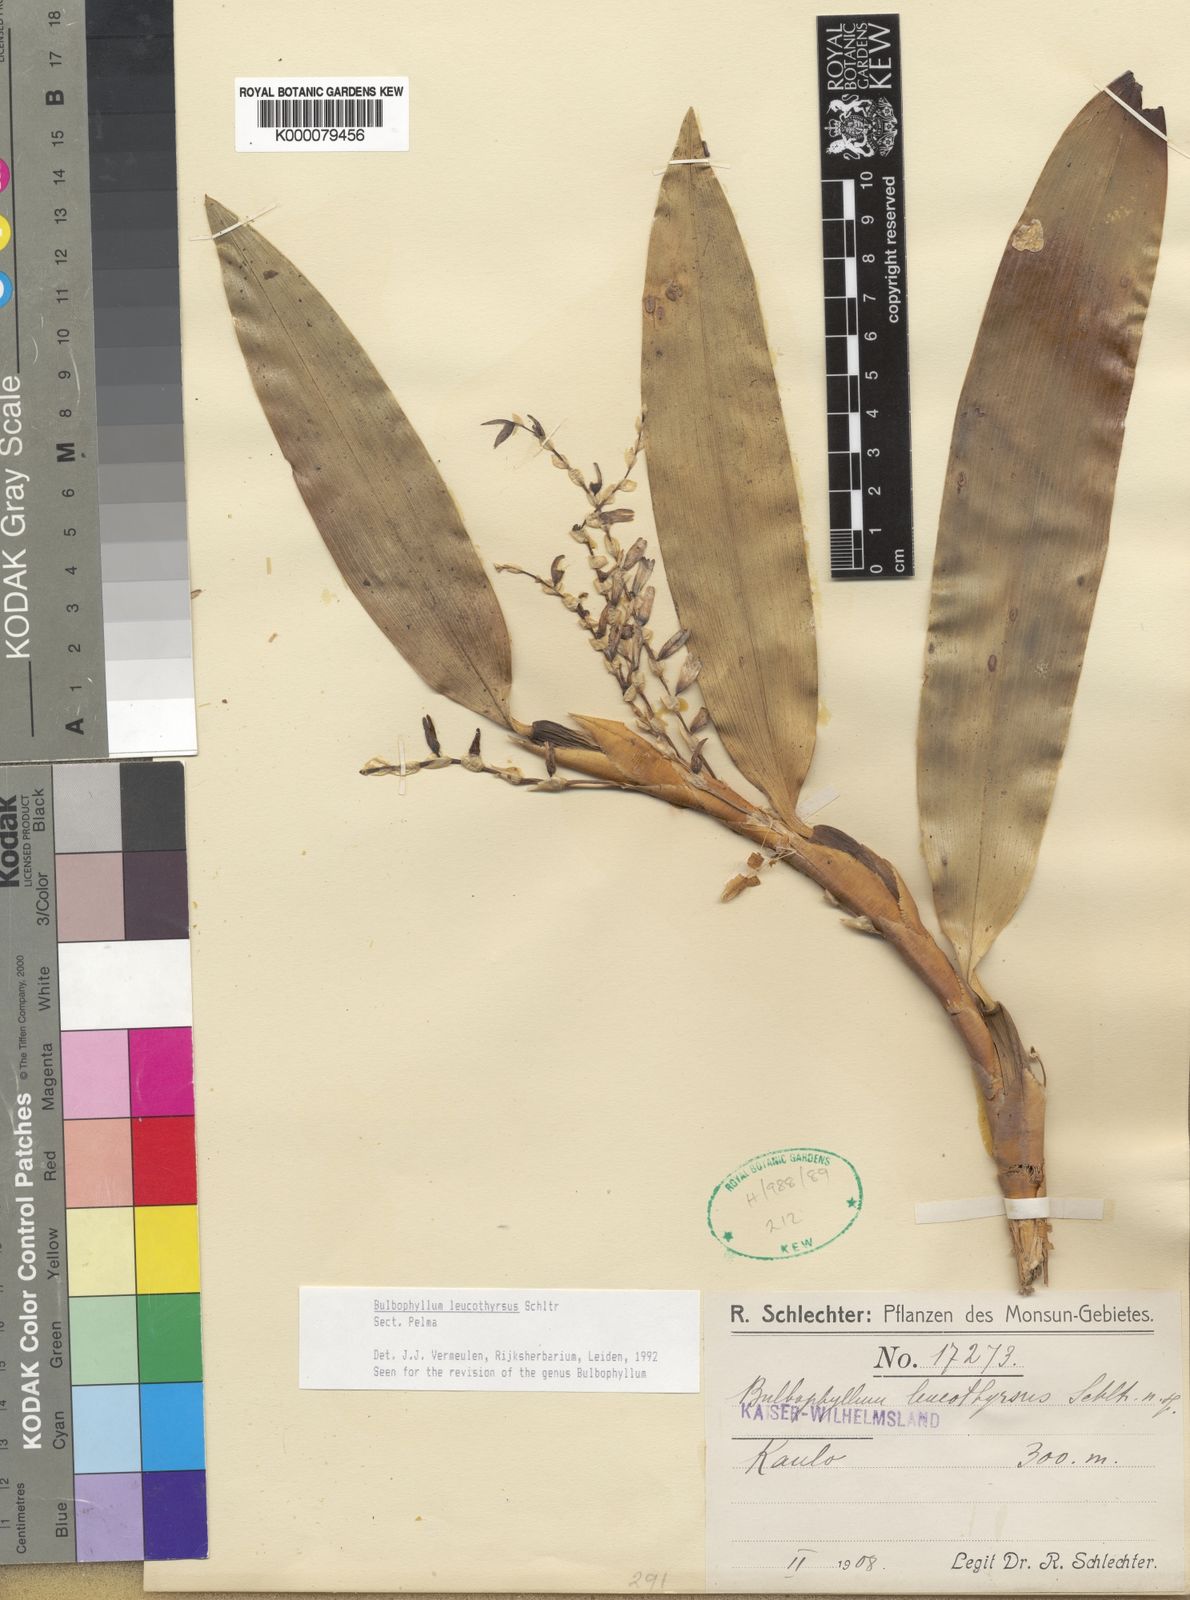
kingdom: Plantae
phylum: Tracheophyta
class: Liliopsida
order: Asparagales
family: Orchidaceae
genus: Bulbophyllum
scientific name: Bulbophyllum
